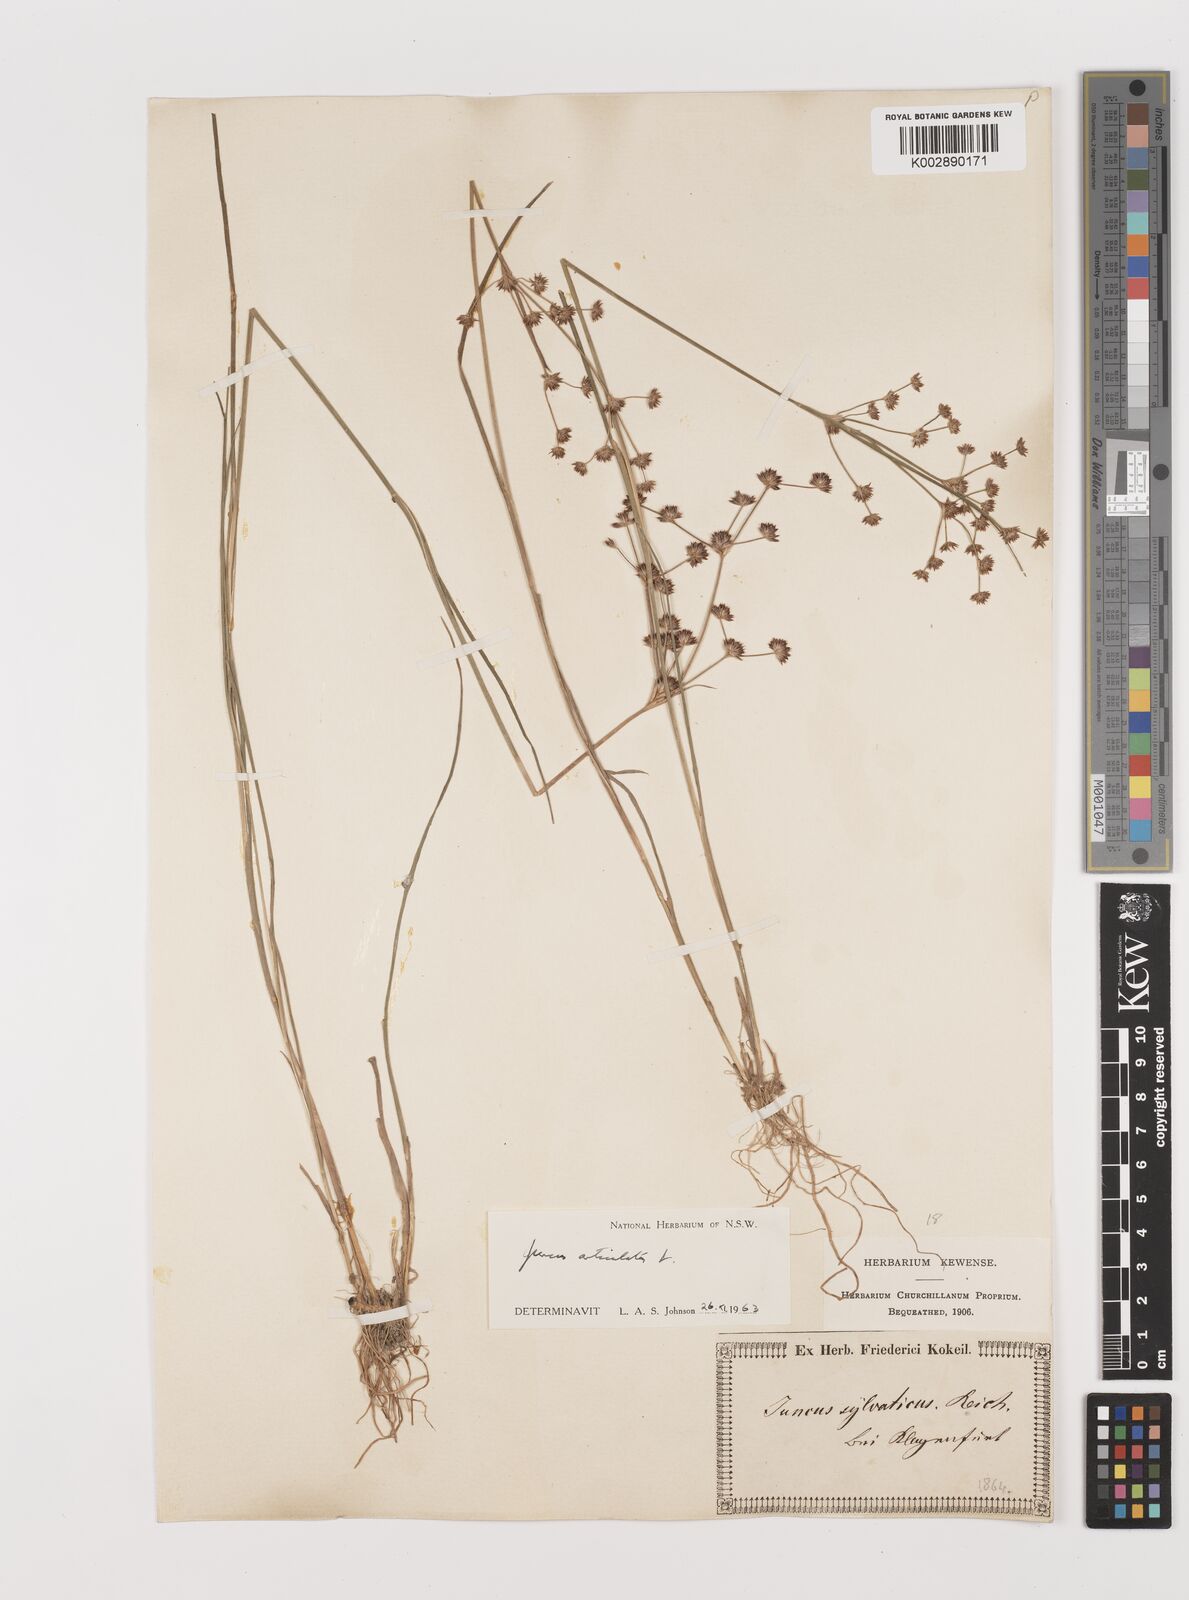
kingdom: Plantae
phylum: Tracheophyta
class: Liliopsida
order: Poales
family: Juncaceae
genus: Juncus
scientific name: Juncus articulatus
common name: Jointed rush
